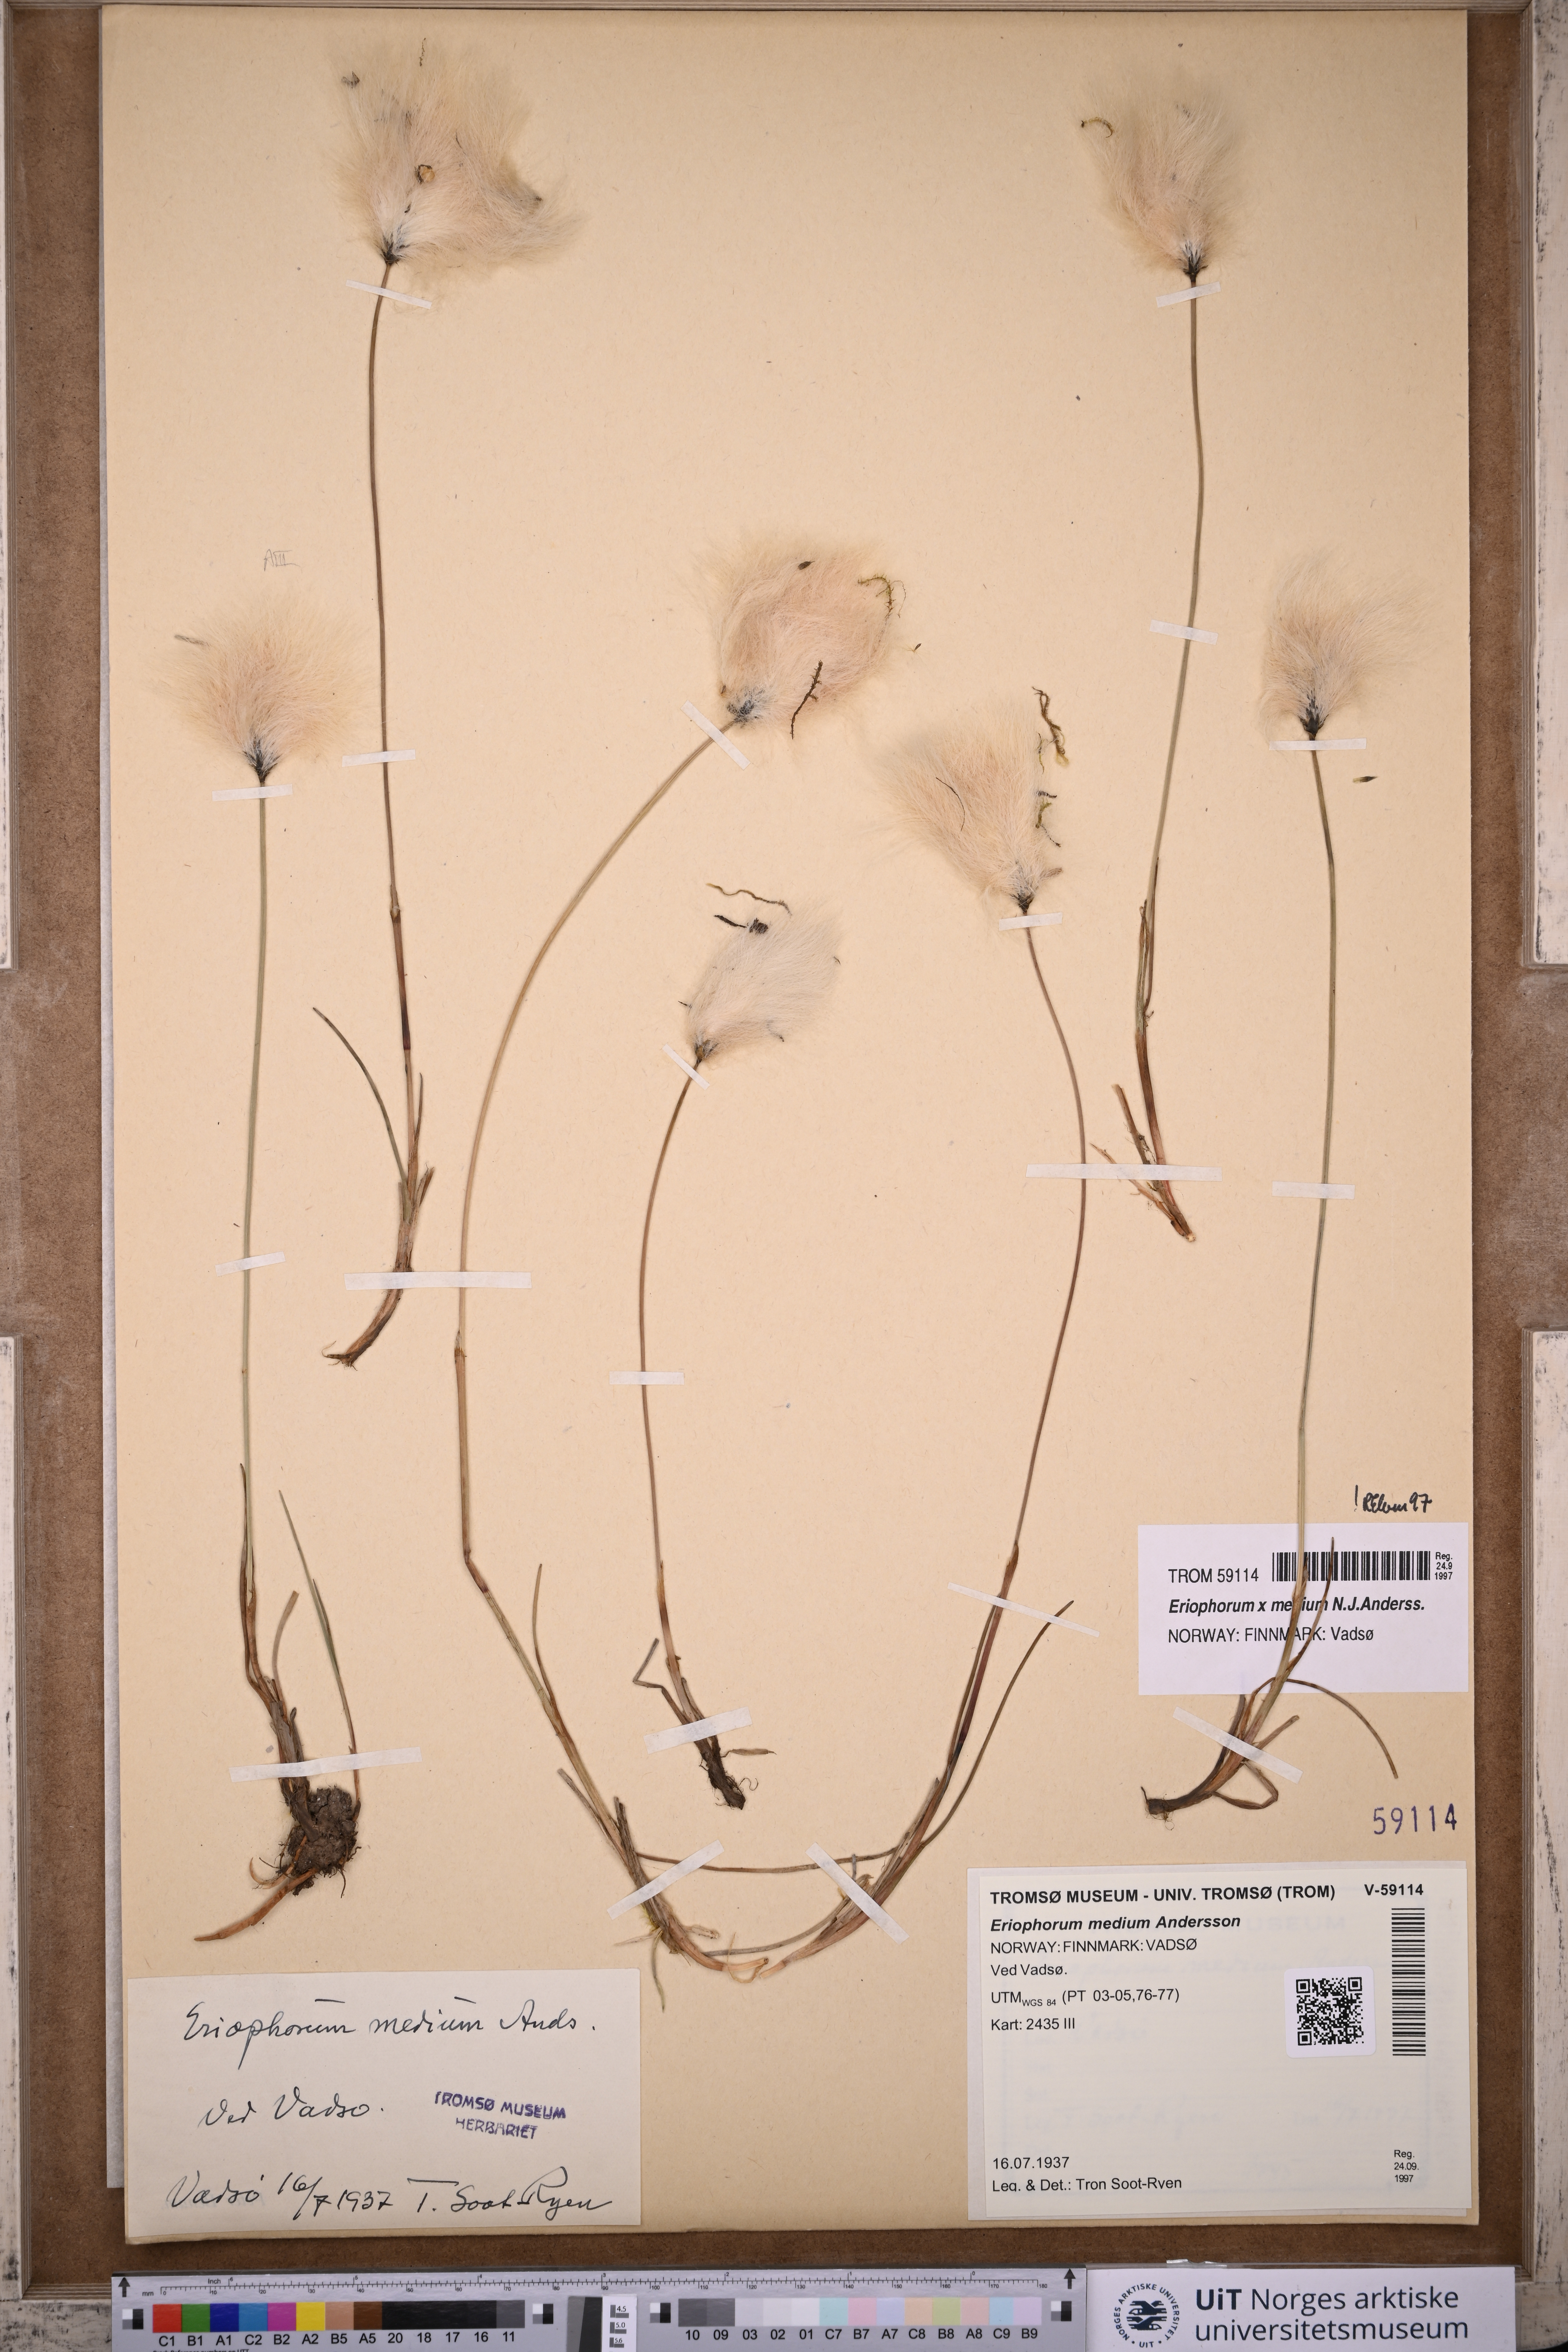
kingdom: Plantae
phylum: Tracheophyta
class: Liliopsida
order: Poales
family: Cyperaceae
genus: Eriophorum
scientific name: Eriophorum medium
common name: Intermediate cottongrass
